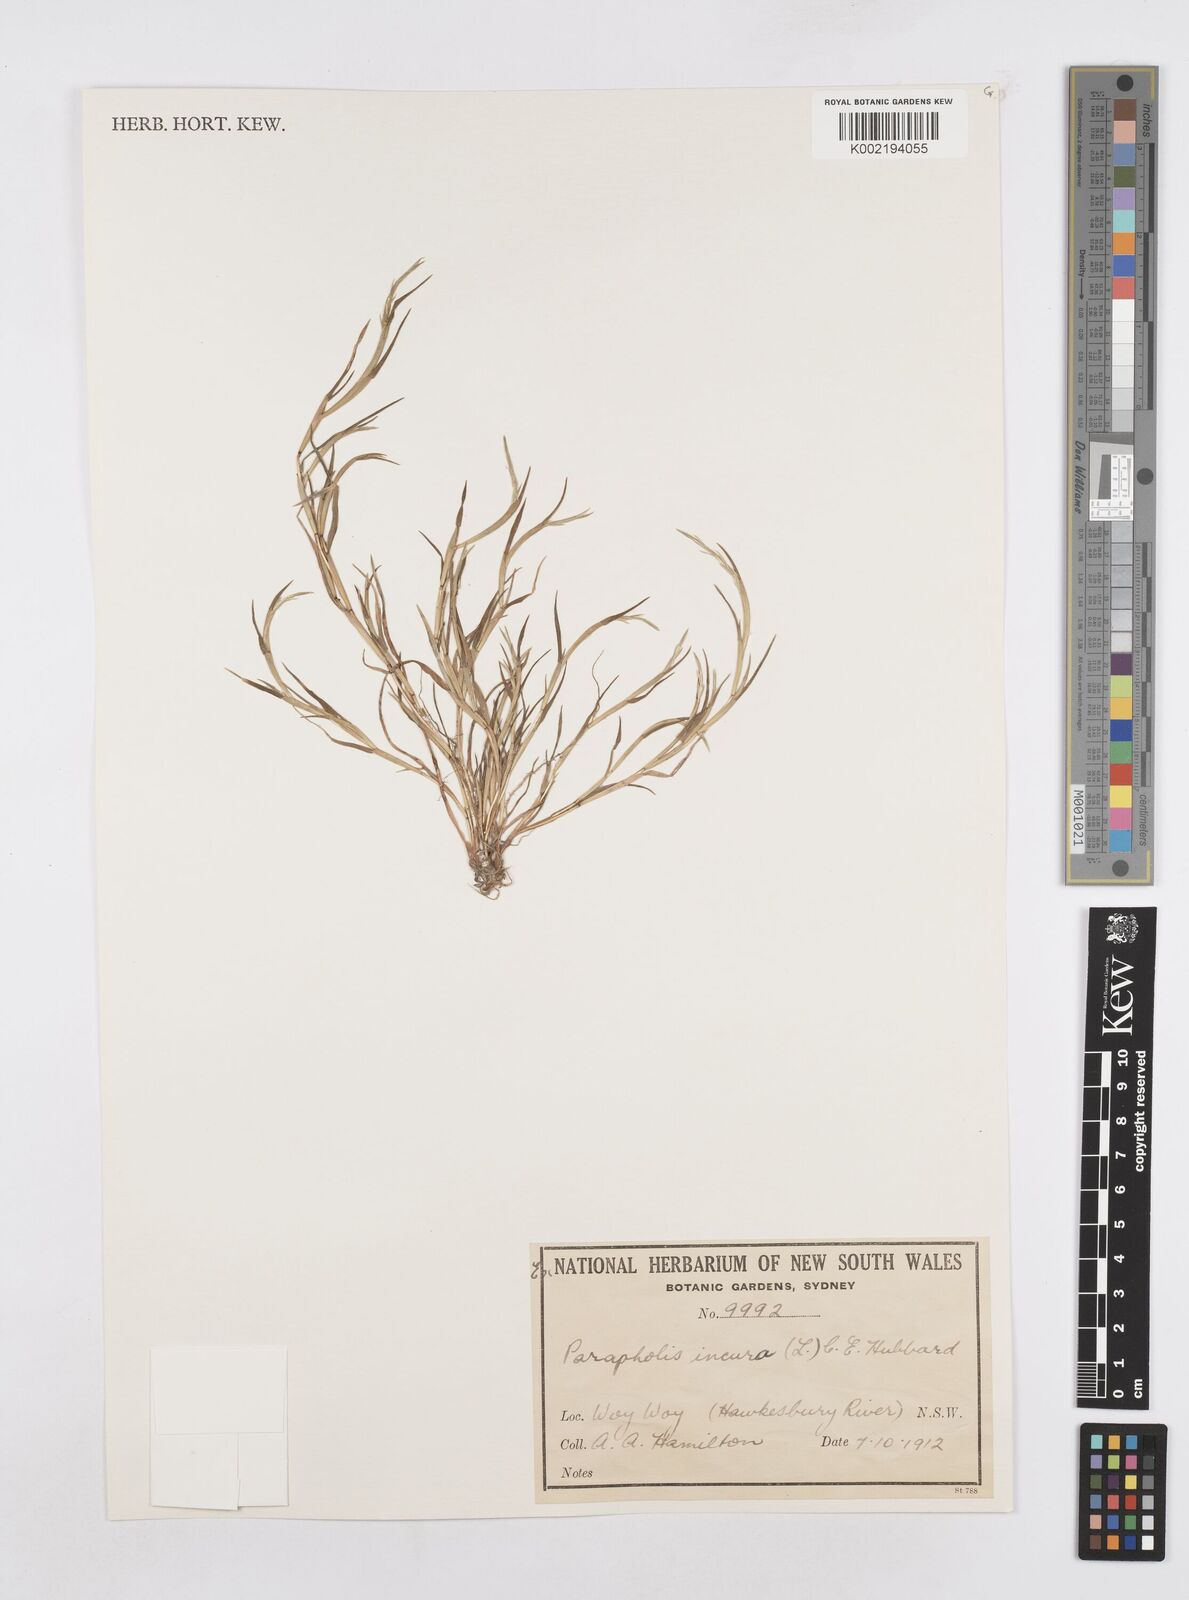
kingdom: Plantae
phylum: Tracheophyta
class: Liliopsida
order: Poales
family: Poaceae
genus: Parapholis
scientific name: Parapholis incurva
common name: Curved sicklegrass
